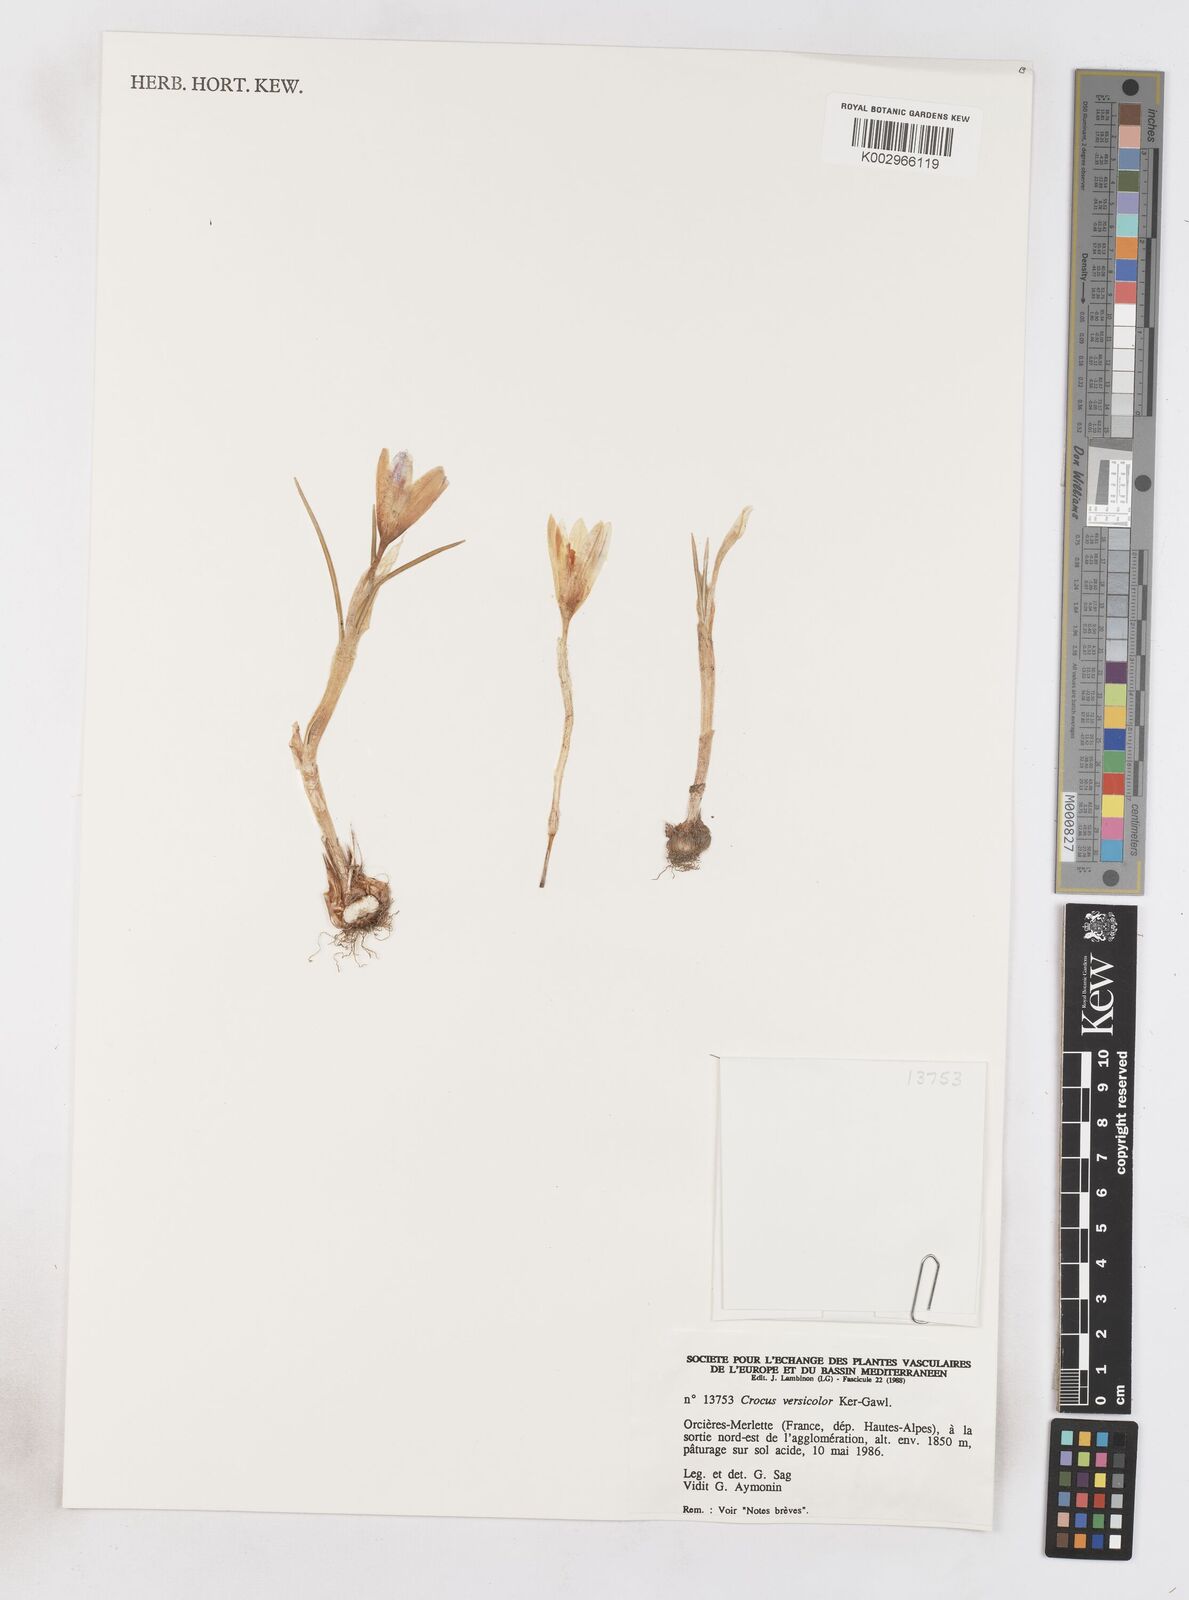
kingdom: Plantae
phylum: Tracheophyta
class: Liliopsida
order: Asparagales
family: Iridaceae
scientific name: Iridaceae
